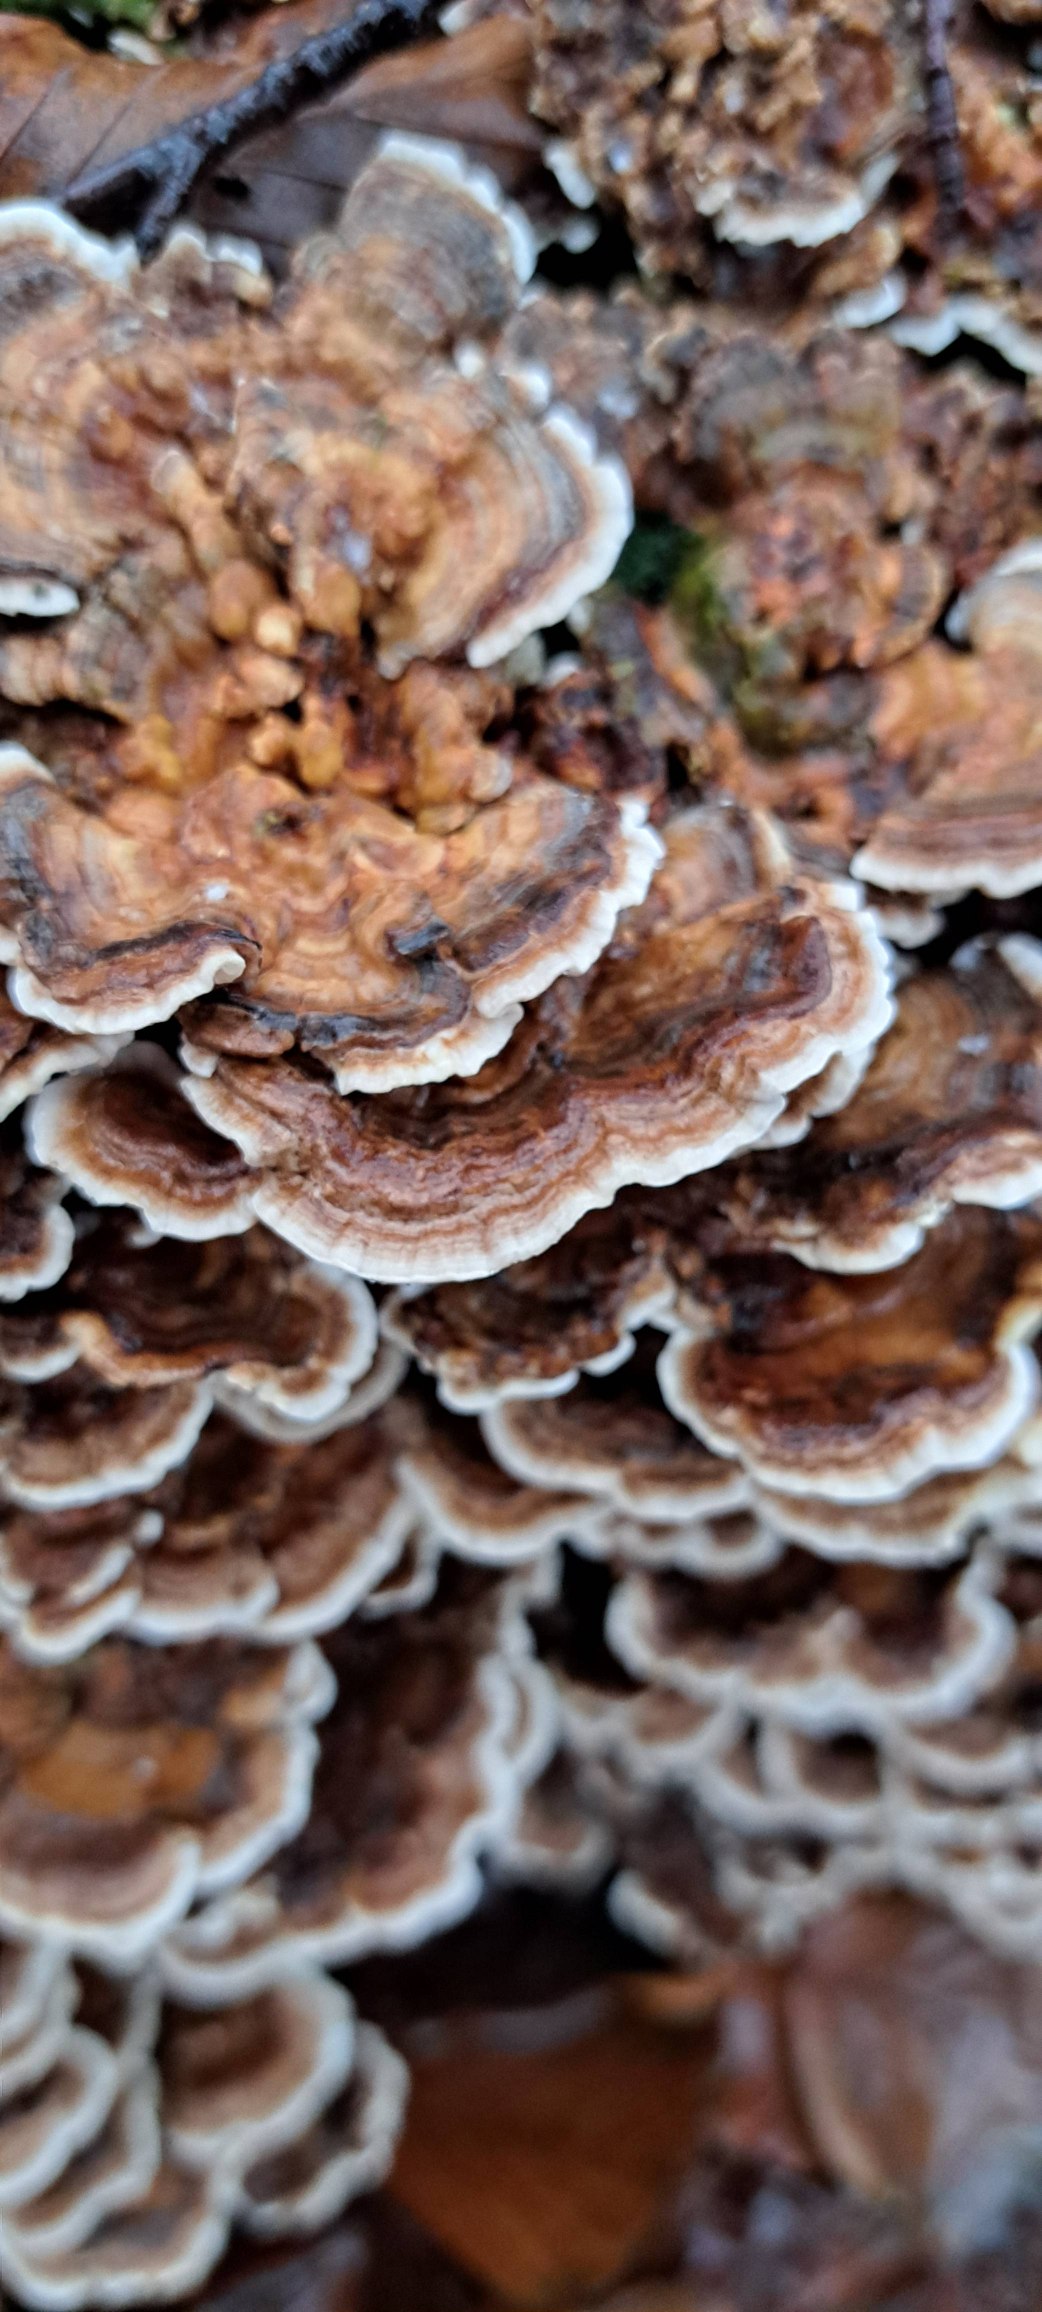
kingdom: Fungi
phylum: Basidiomycota
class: Agaricomycetes
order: Polyporales
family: Polyporaceae
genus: Trametes
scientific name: Trametes versicolor
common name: Broget læderporesvamp
